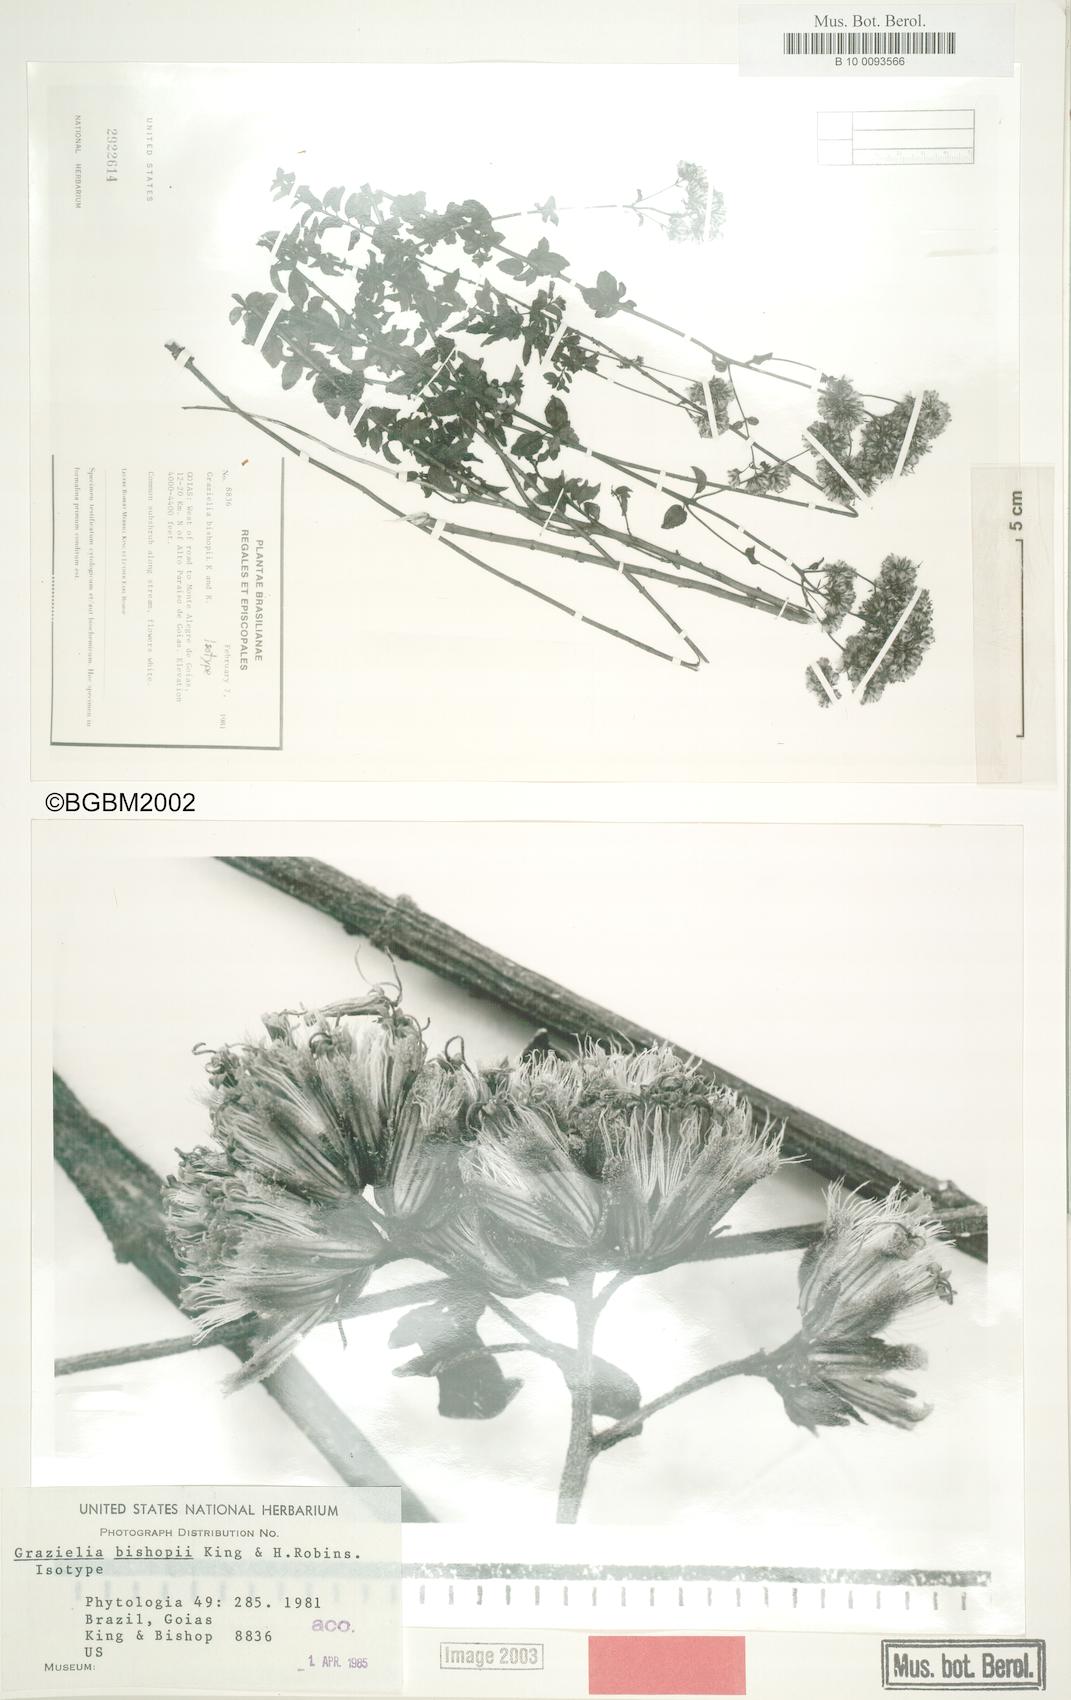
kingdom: Plantae
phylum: Tracheophyta
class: Magnoliopsida
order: Asterales
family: Asteraceae
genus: Grazielia
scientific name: Grazielia bishopii
